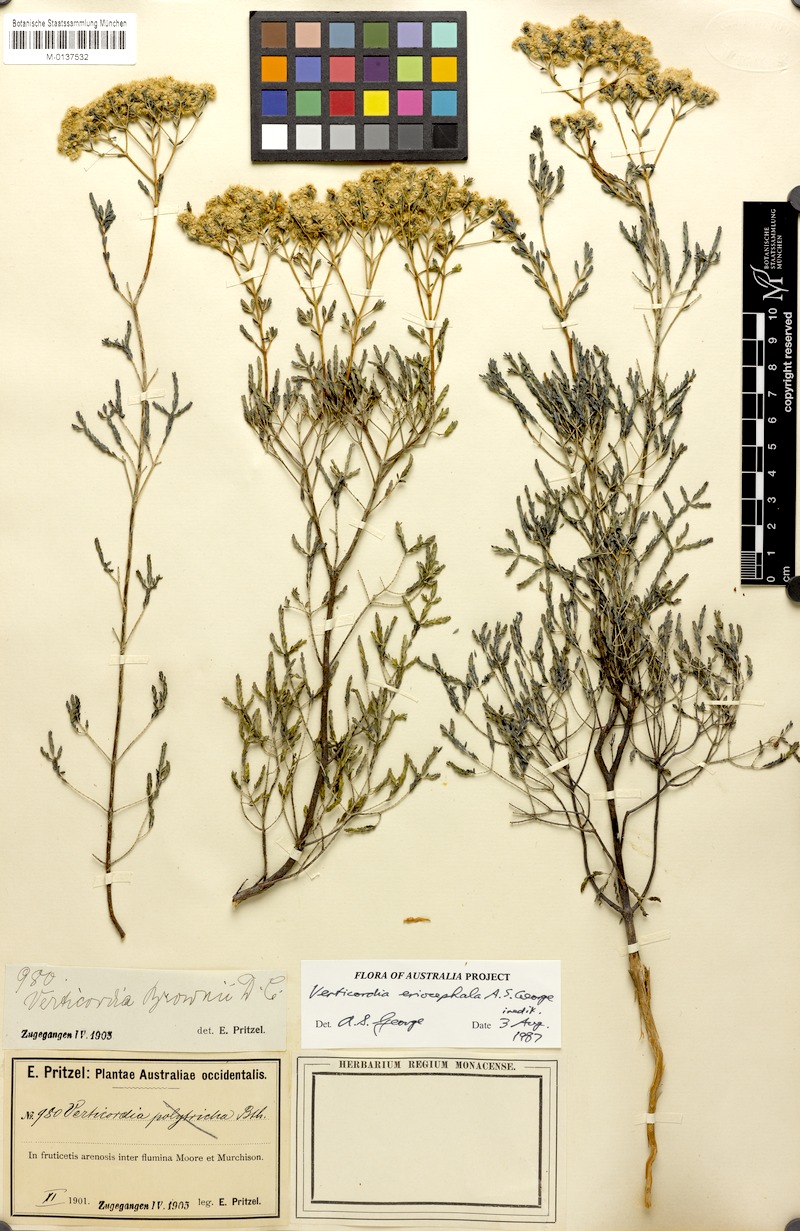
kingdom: Plantae
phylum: Tracheophyta
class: Magnoliopsida
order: Myrtales
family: Myrtaceae
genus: Verticordia
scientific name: Verticordia eriocephala
